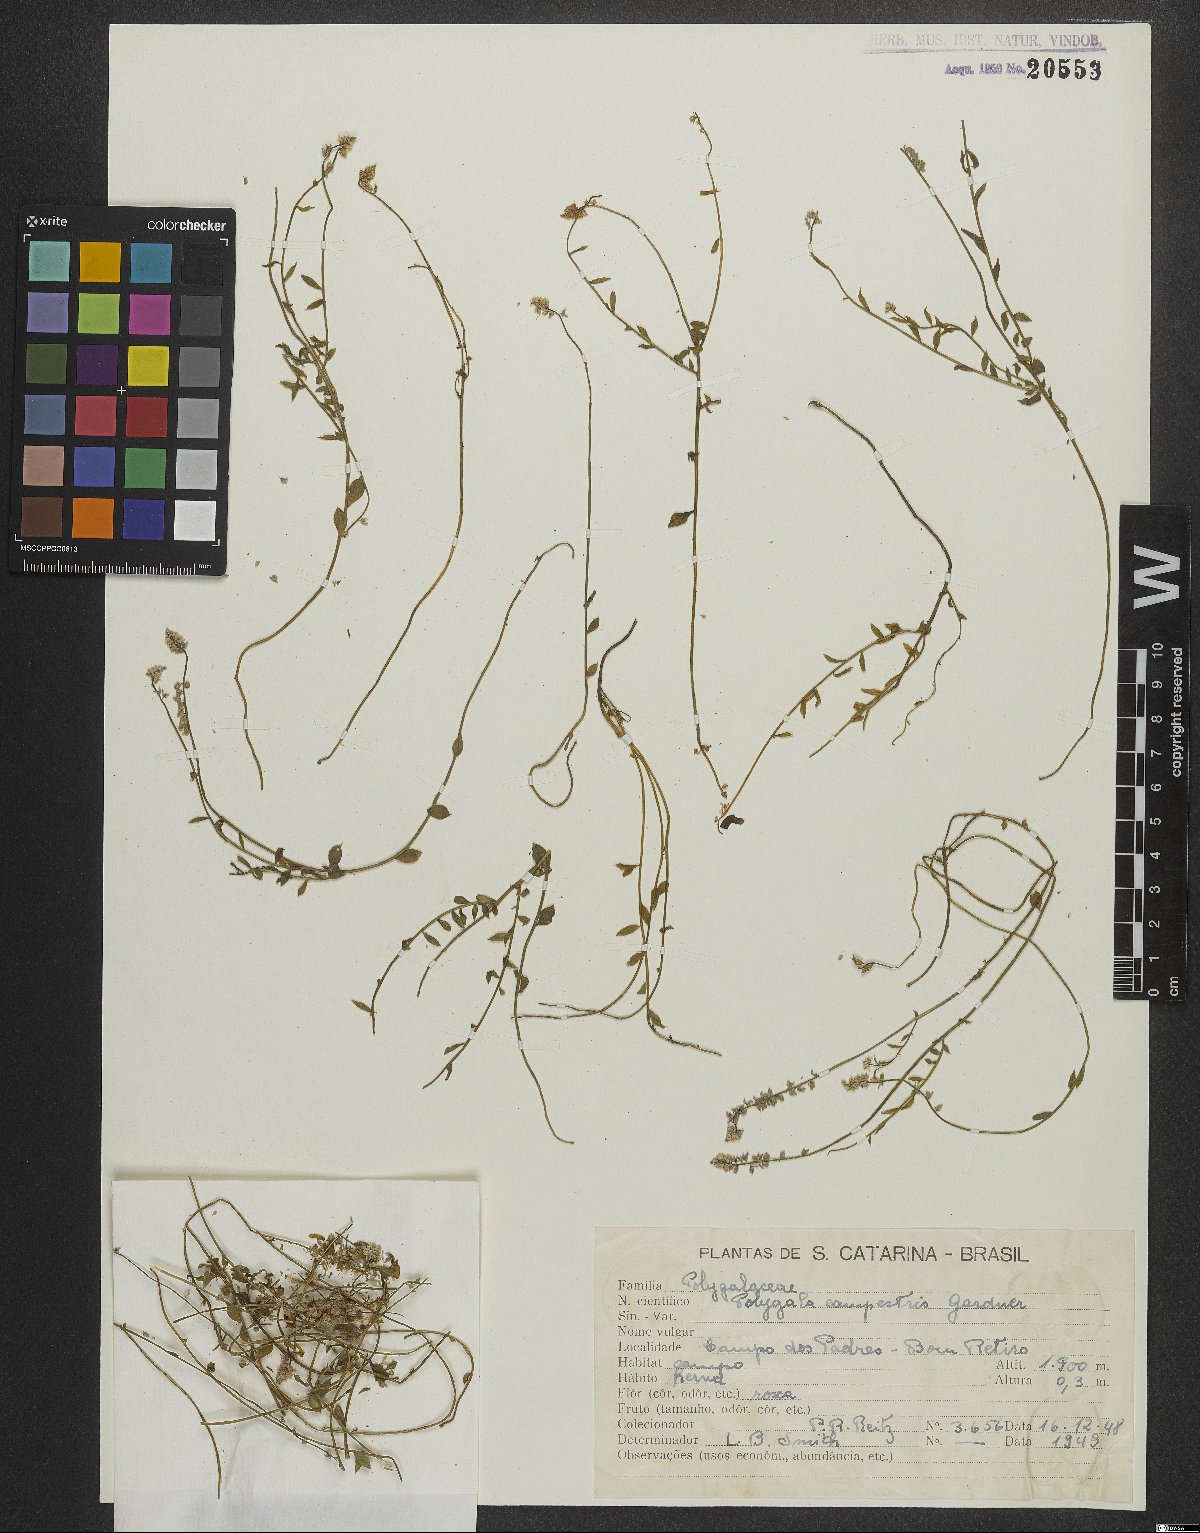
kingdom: Plantae
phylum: Tracheophyta
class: Magnoliopsida
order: Fabales
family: Polygalaceae
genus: Polygala
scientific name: Polygala campestris
